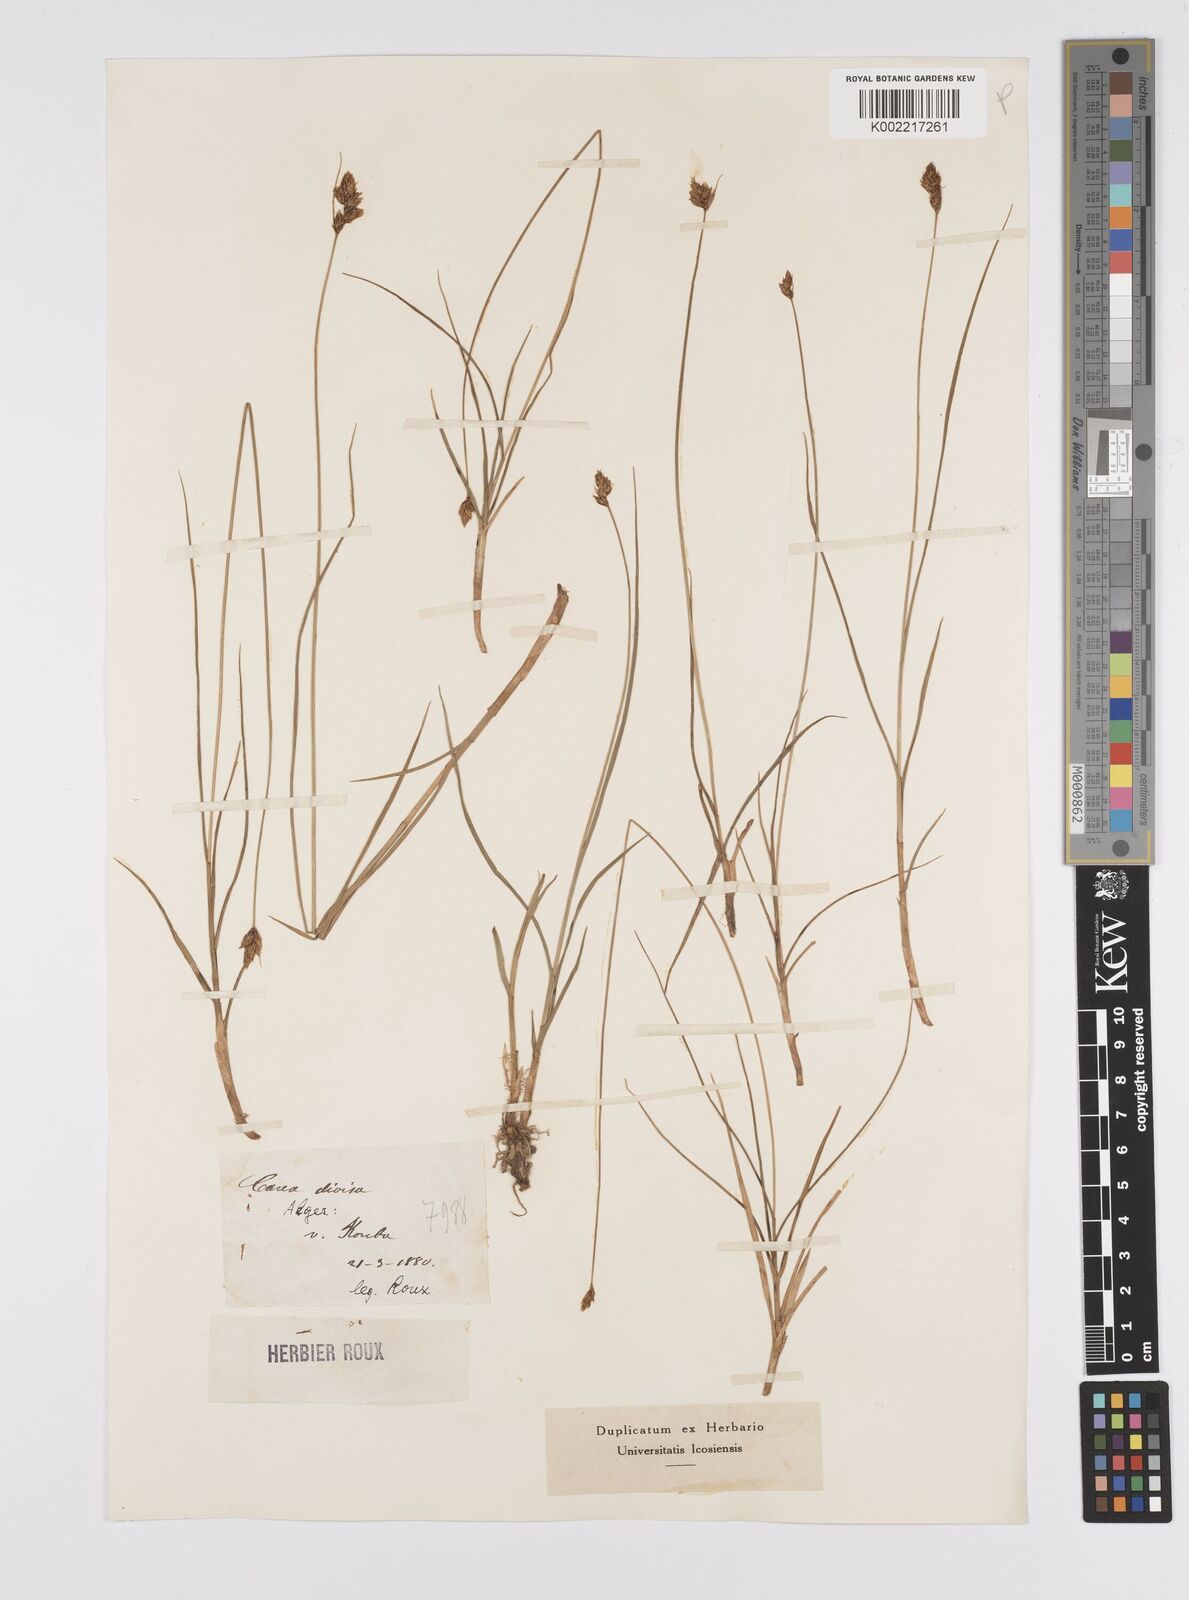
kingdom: Plantae
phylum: Tracheophyta
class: Liliopsida
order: Poales
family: Cyperaceae
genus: Carex
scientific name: Carex divisa
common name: Divided sedge
